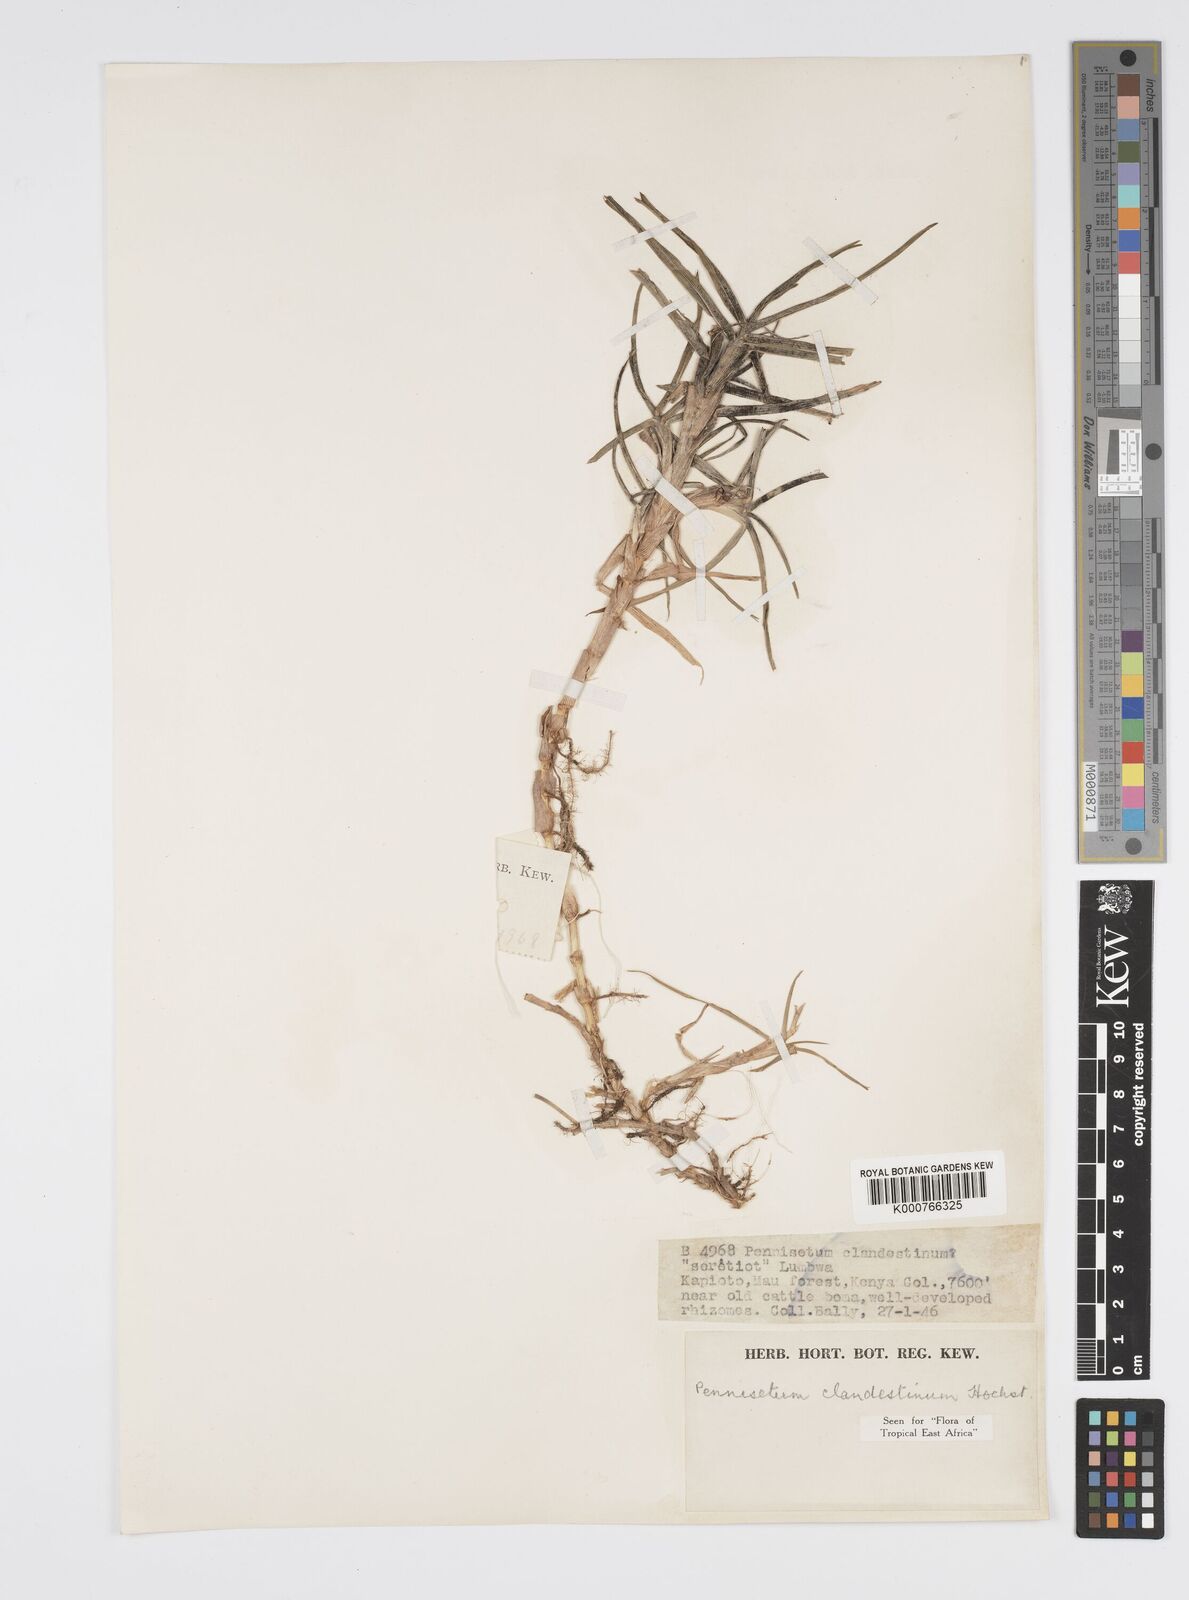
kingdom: Plantae
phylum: Tracheophyta
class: Liliopsida
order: Poales
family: Poaceae
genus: Cenchrus
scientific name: Cenchrus clandestinus
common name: Kikuyugrass
